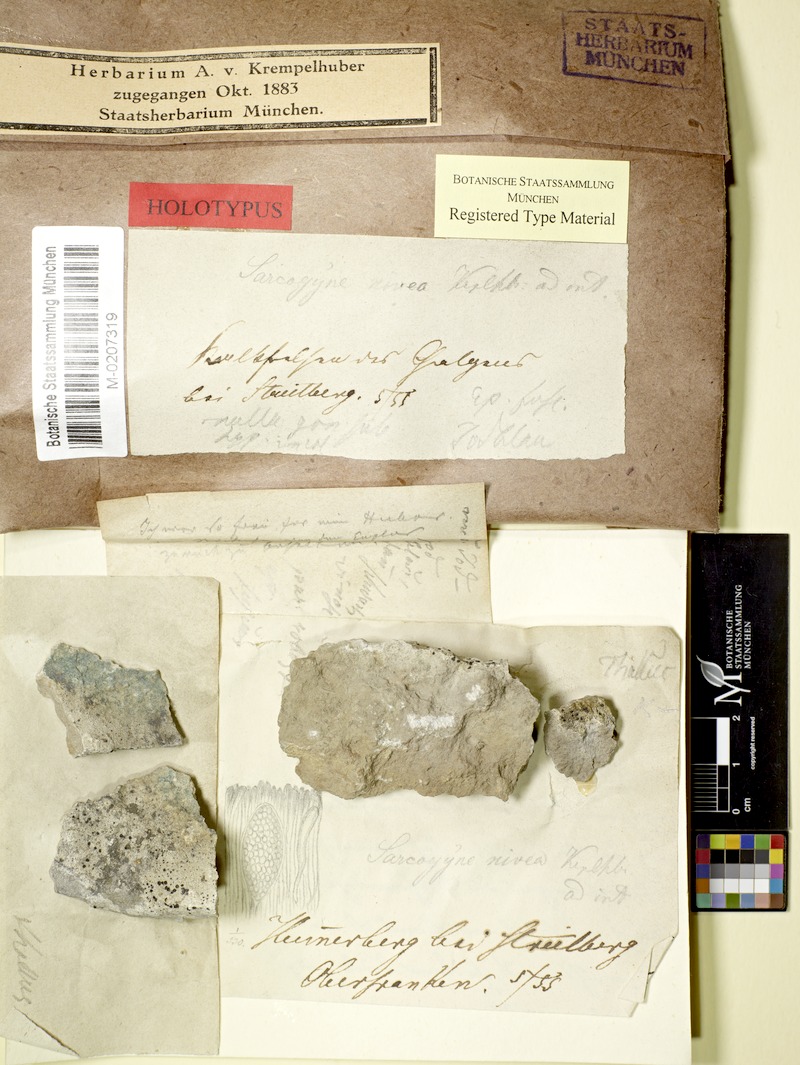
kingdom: Fungi
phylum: Ascomycota
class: Lecanoromycetes
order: Acarosporales
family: Acarosporaceae
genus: Sarcogyne
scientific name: Sarcogyne nivea
